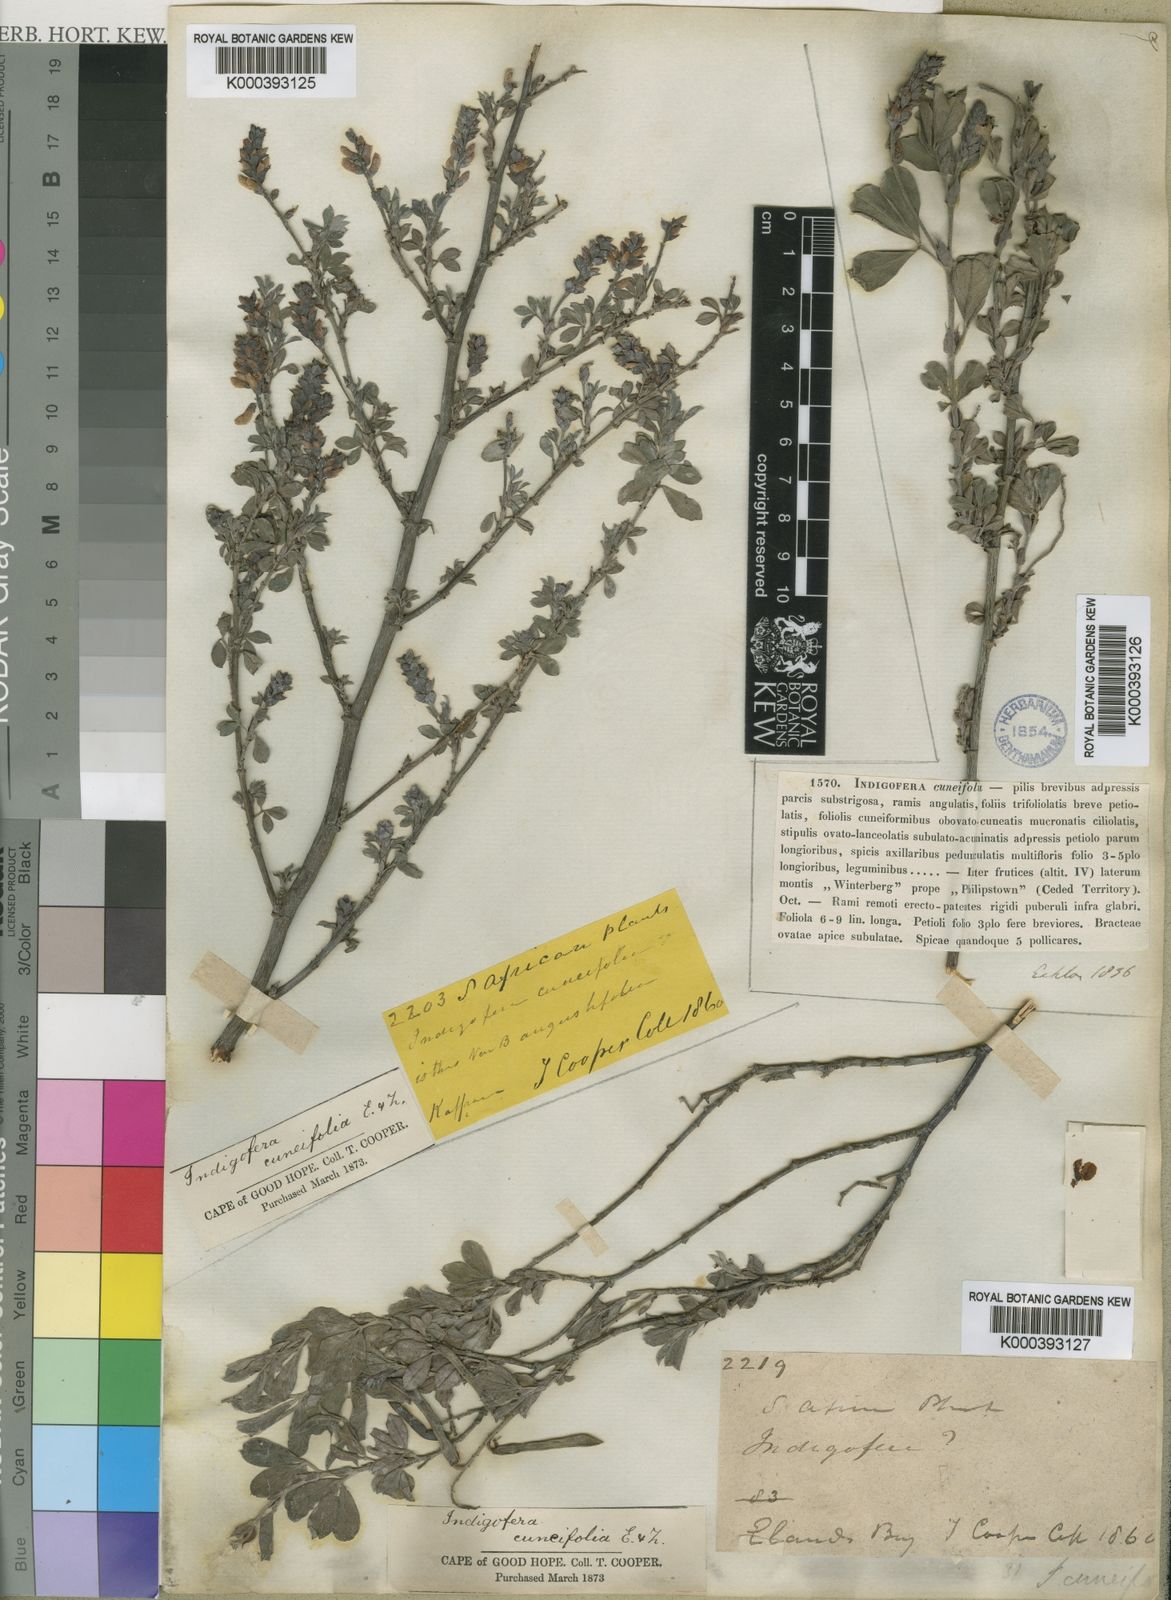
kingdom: Plantae
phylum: Tracheophyta
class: Magnoliopsida
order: Fabales
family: Fabaceae
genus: Indigofera
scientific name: Indigofera cuneifolia
